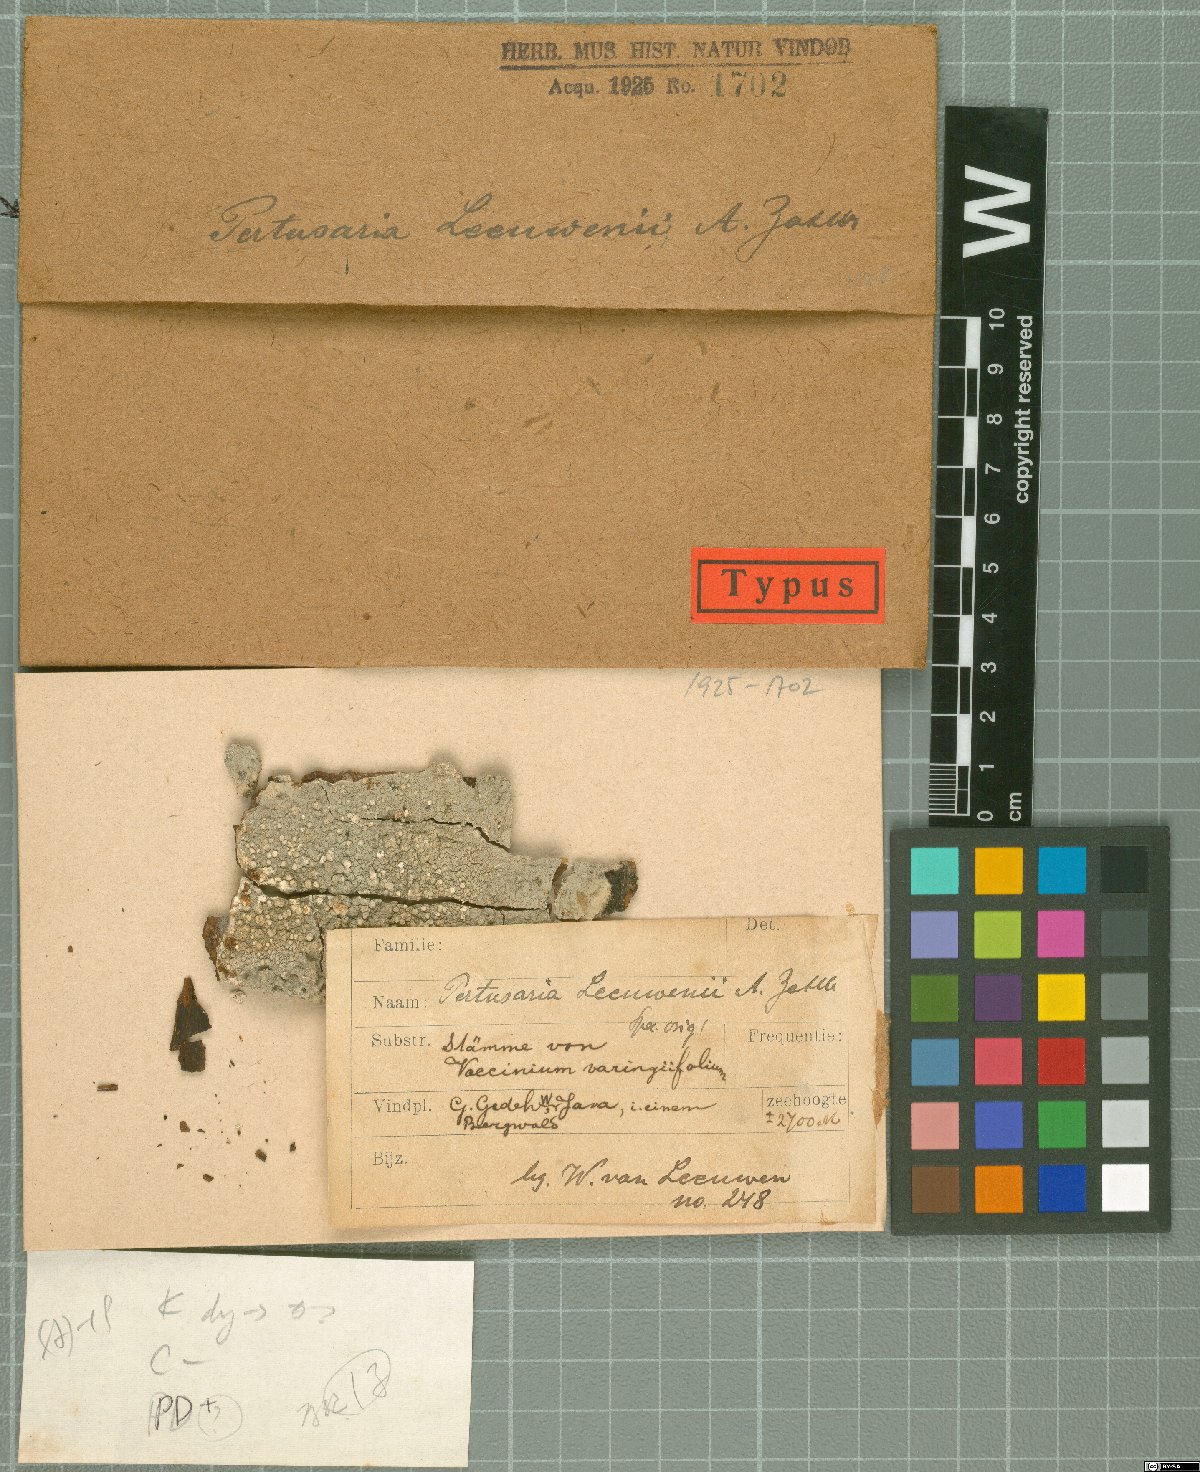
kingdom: Fungi
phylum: Ascomycota
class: Lecanoromycetes
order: Pertusariales
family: Pertusariaceae
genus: Lepra
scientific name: Lepra leeuwenii
